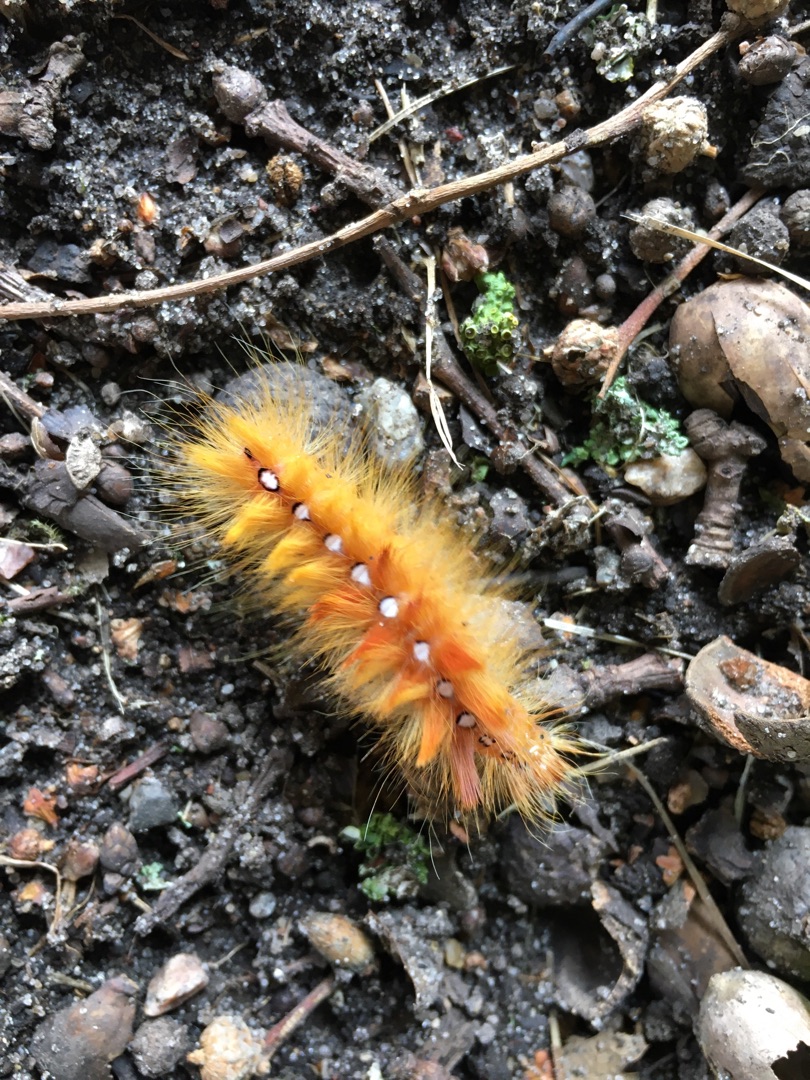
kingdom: Animalia
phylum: Arthropoda
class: Insecta
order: Lepidoptera
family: Noctuidae
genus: Acronicta
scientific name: Acronicta aceris
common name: Ahornugle
